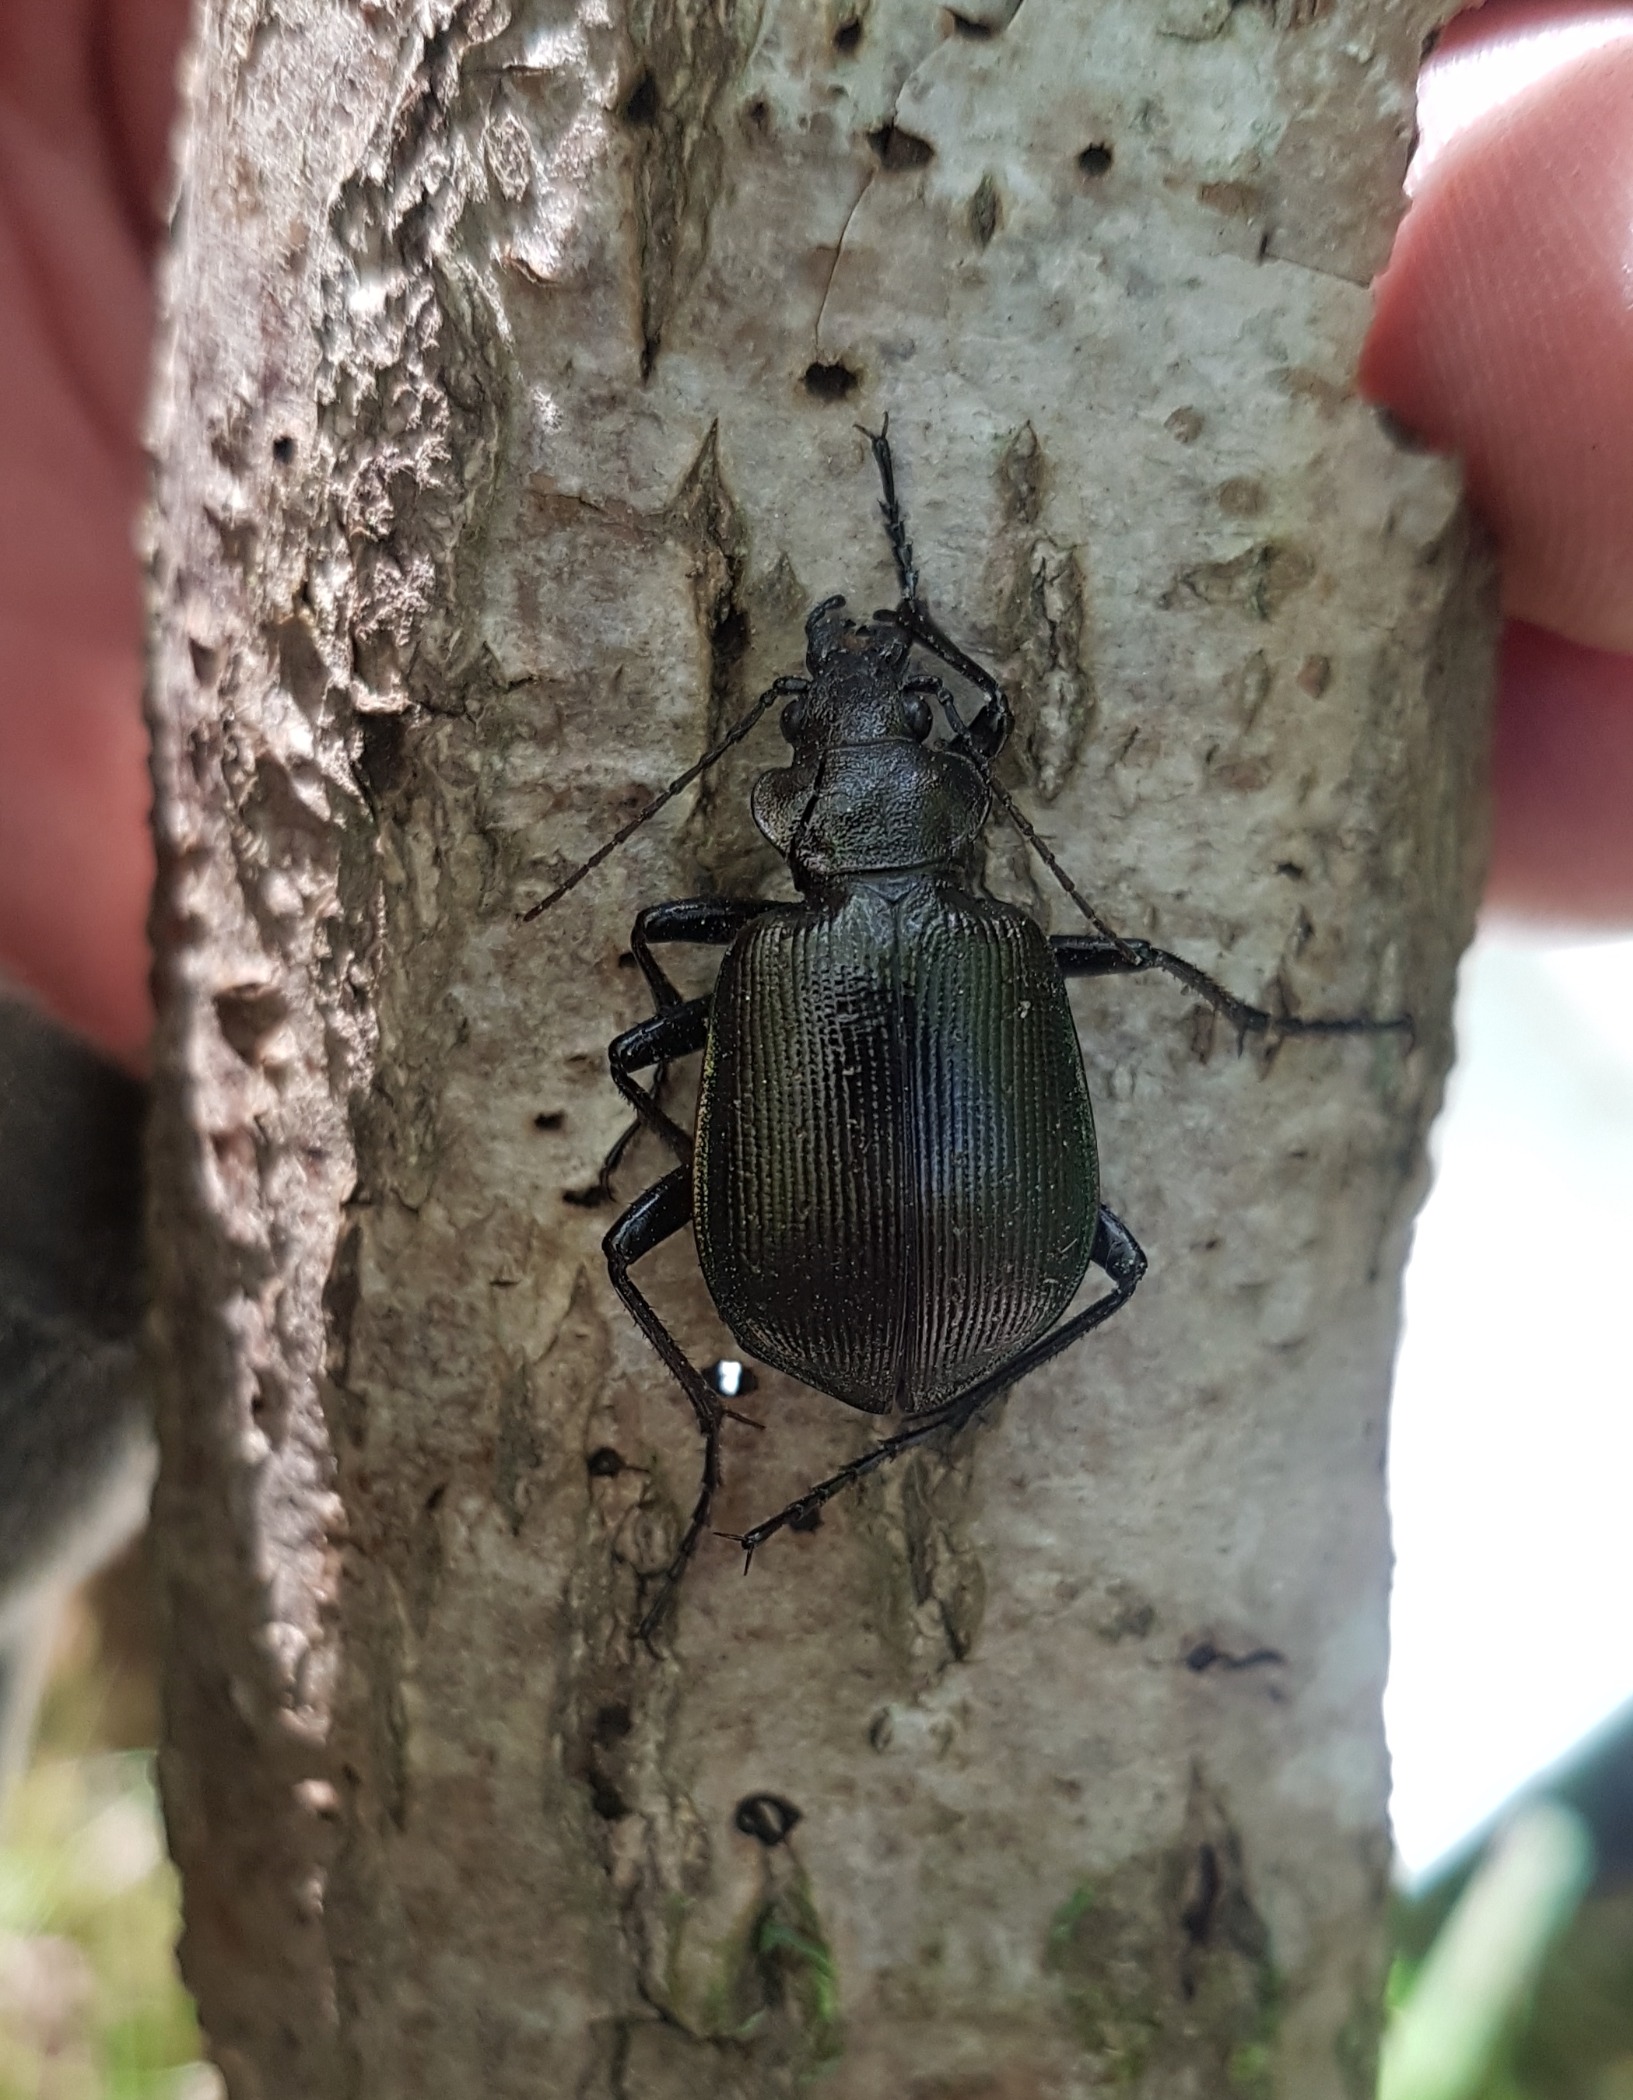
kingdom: Animalia
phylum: Arthropoda
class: Insecta
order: Coleoptera
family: Carabidae
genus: Calosoma
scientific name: Calosoma inquisitor
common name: Lille pupperøver
